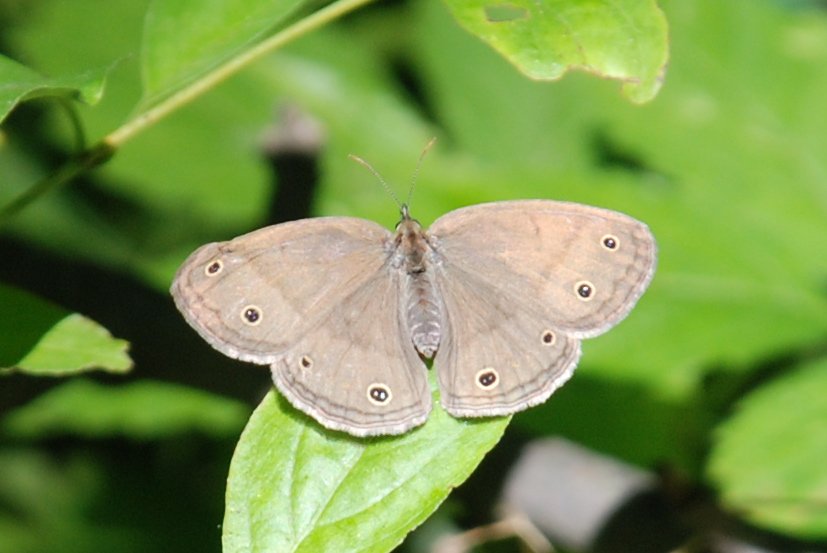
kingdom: Animalia
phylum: Arthropoda
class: Insecta
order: Lepidoptera
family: Nymphalidae
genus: Euptychia
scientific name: Euptychia cymela
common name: Little Wood Satyr
